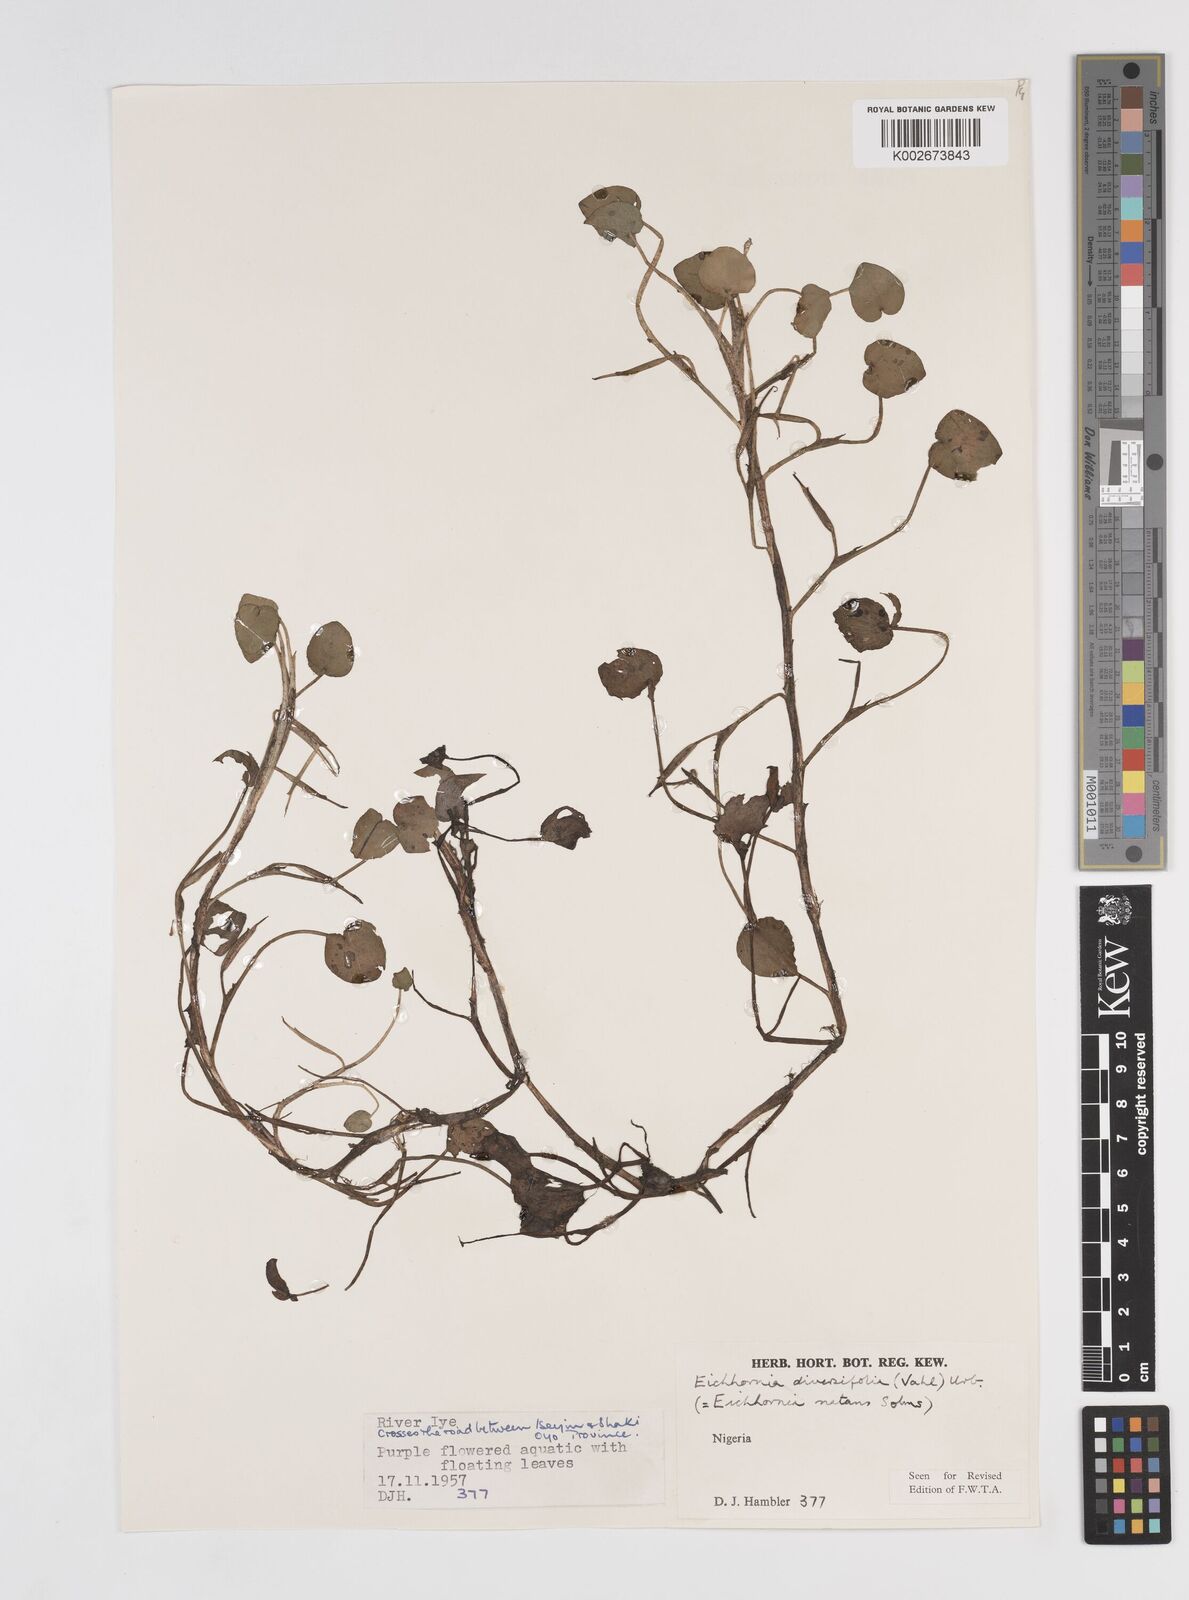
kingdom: Plantae
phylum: Tracheophyta
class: Liliopsida
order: Commelinales
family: Pontederiaceae
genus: Pontederia
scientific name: Pontederia diversifolia
